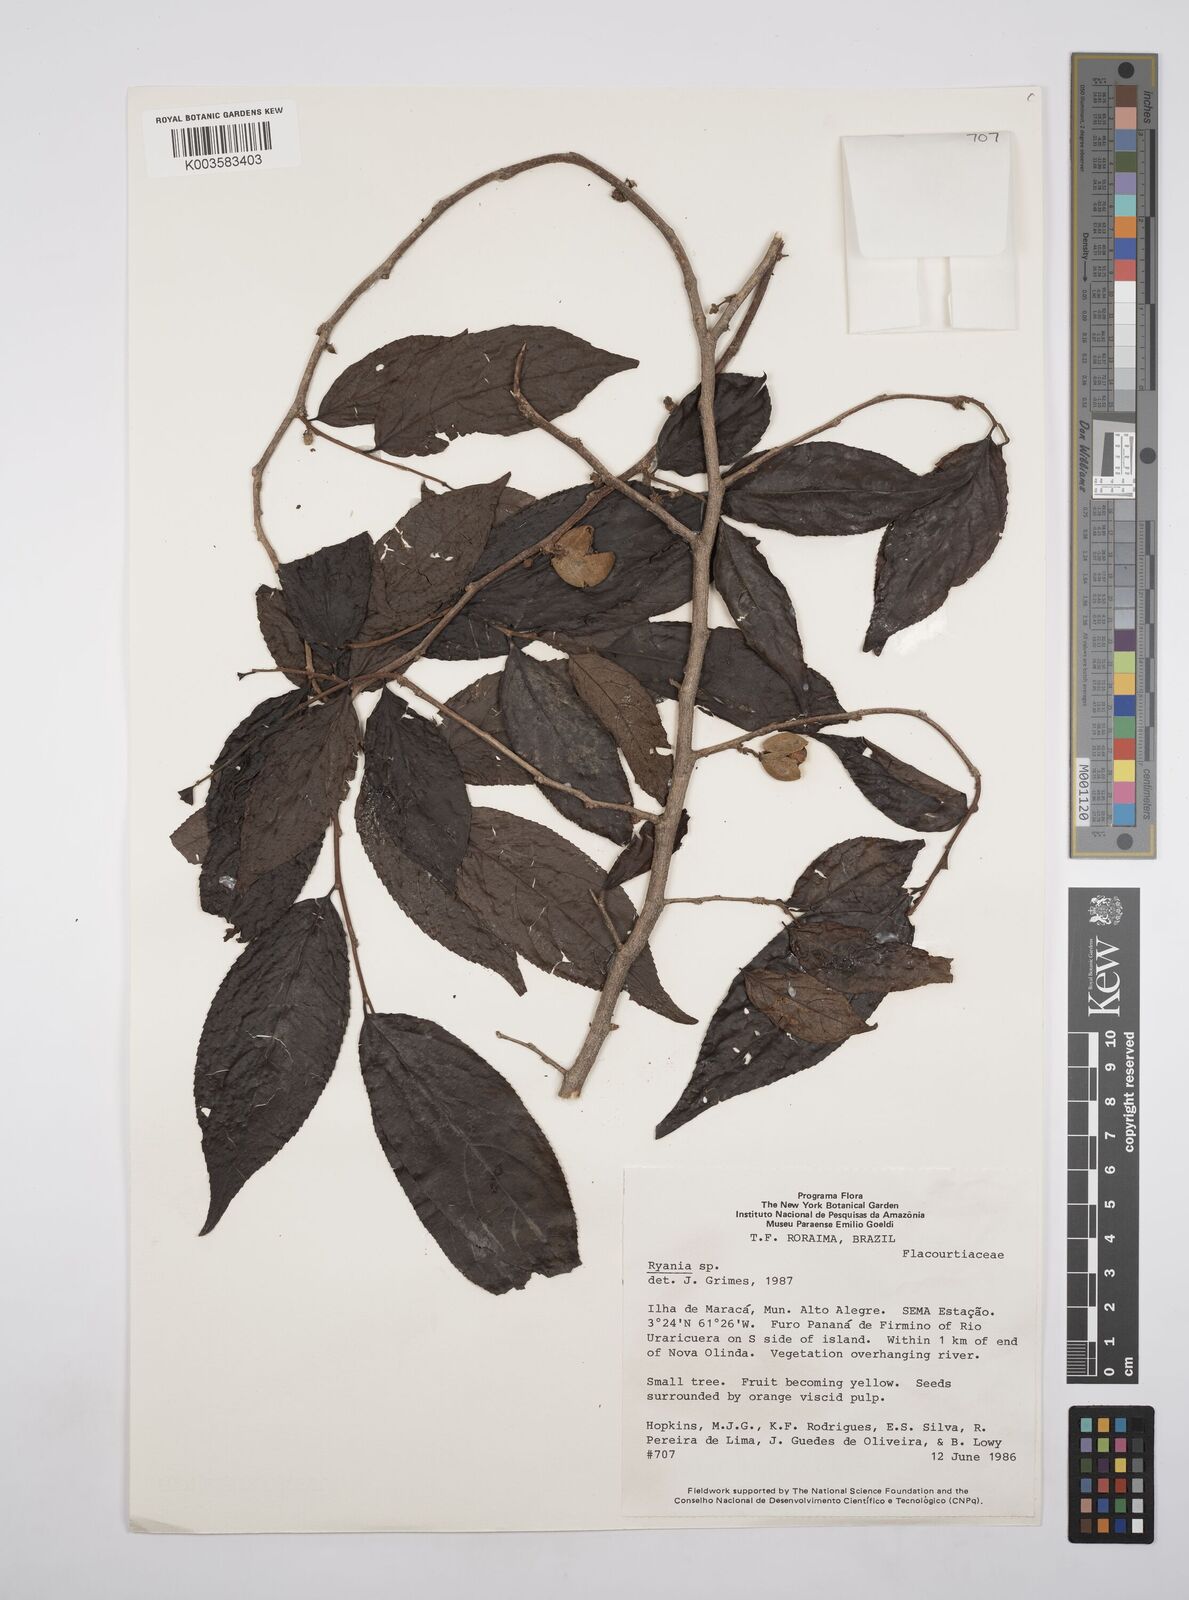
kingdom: Plantae
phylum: Tracheophyta
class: Magnoliopsida
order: Malpighiales
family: Salicaceae
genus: Ryania
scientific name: Ryania
